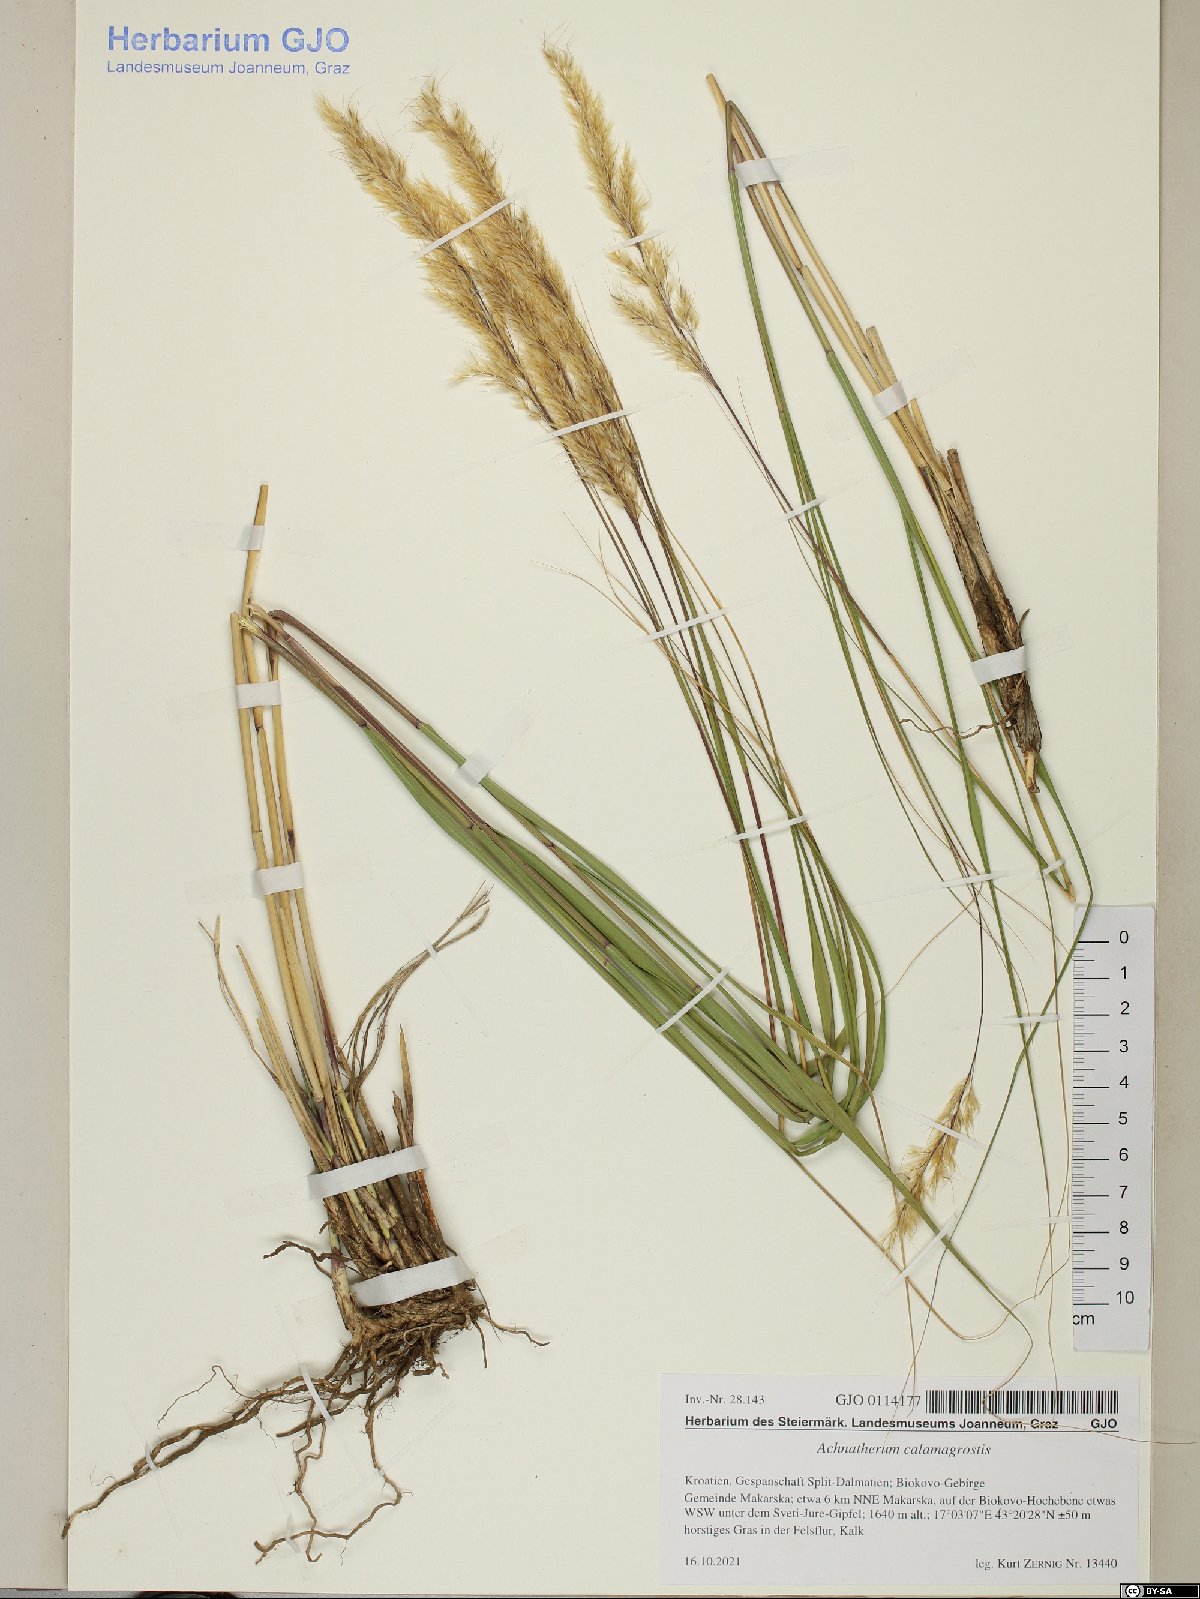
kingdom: Plantae
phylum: Tracheophyta
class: Liliopsida
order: Poales
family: Poaceae
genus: Achnatherum
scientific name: Achnatherum calamagrostis
